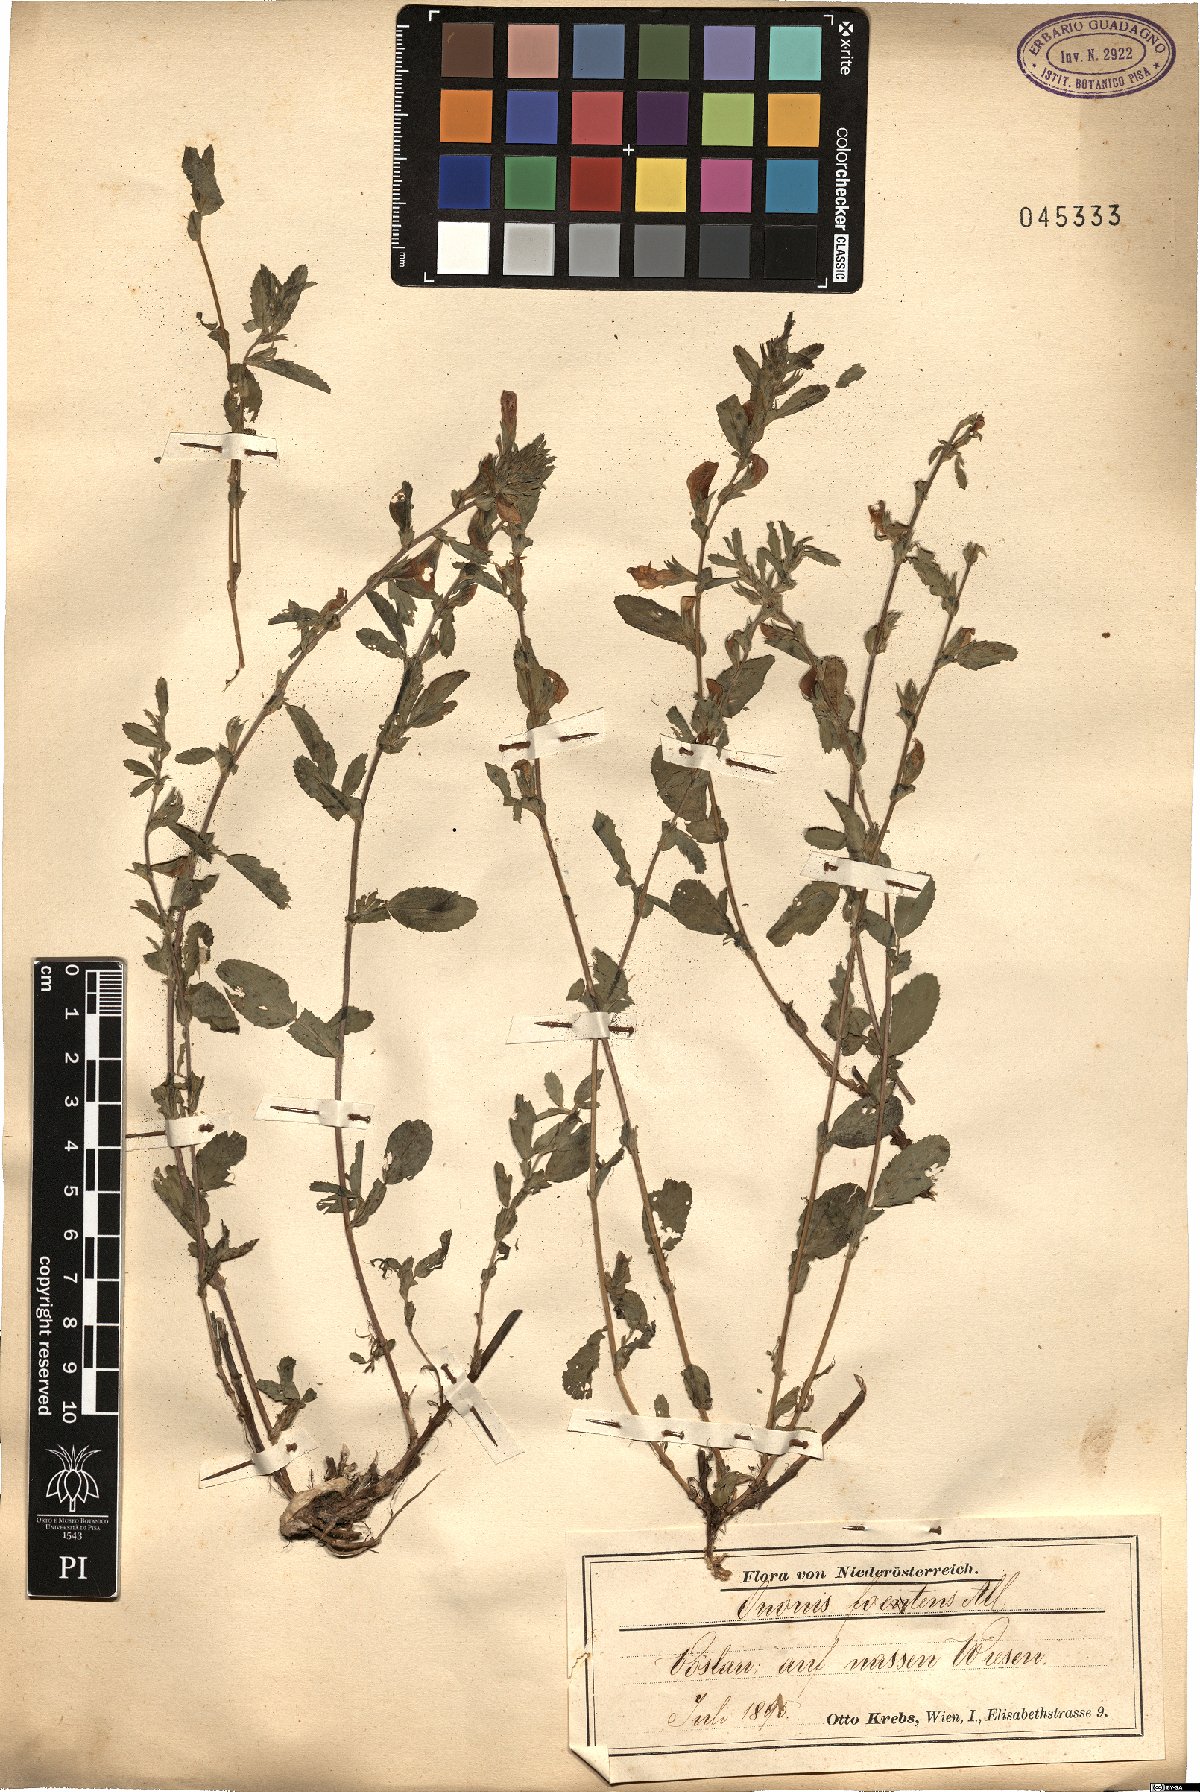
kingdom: Plantae
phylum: Tracheophyta
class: Magnoliopsida
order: Fabales
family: Fabaceae
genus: Ononis
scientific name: Ononis spinosa
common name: Spiny restharrow
